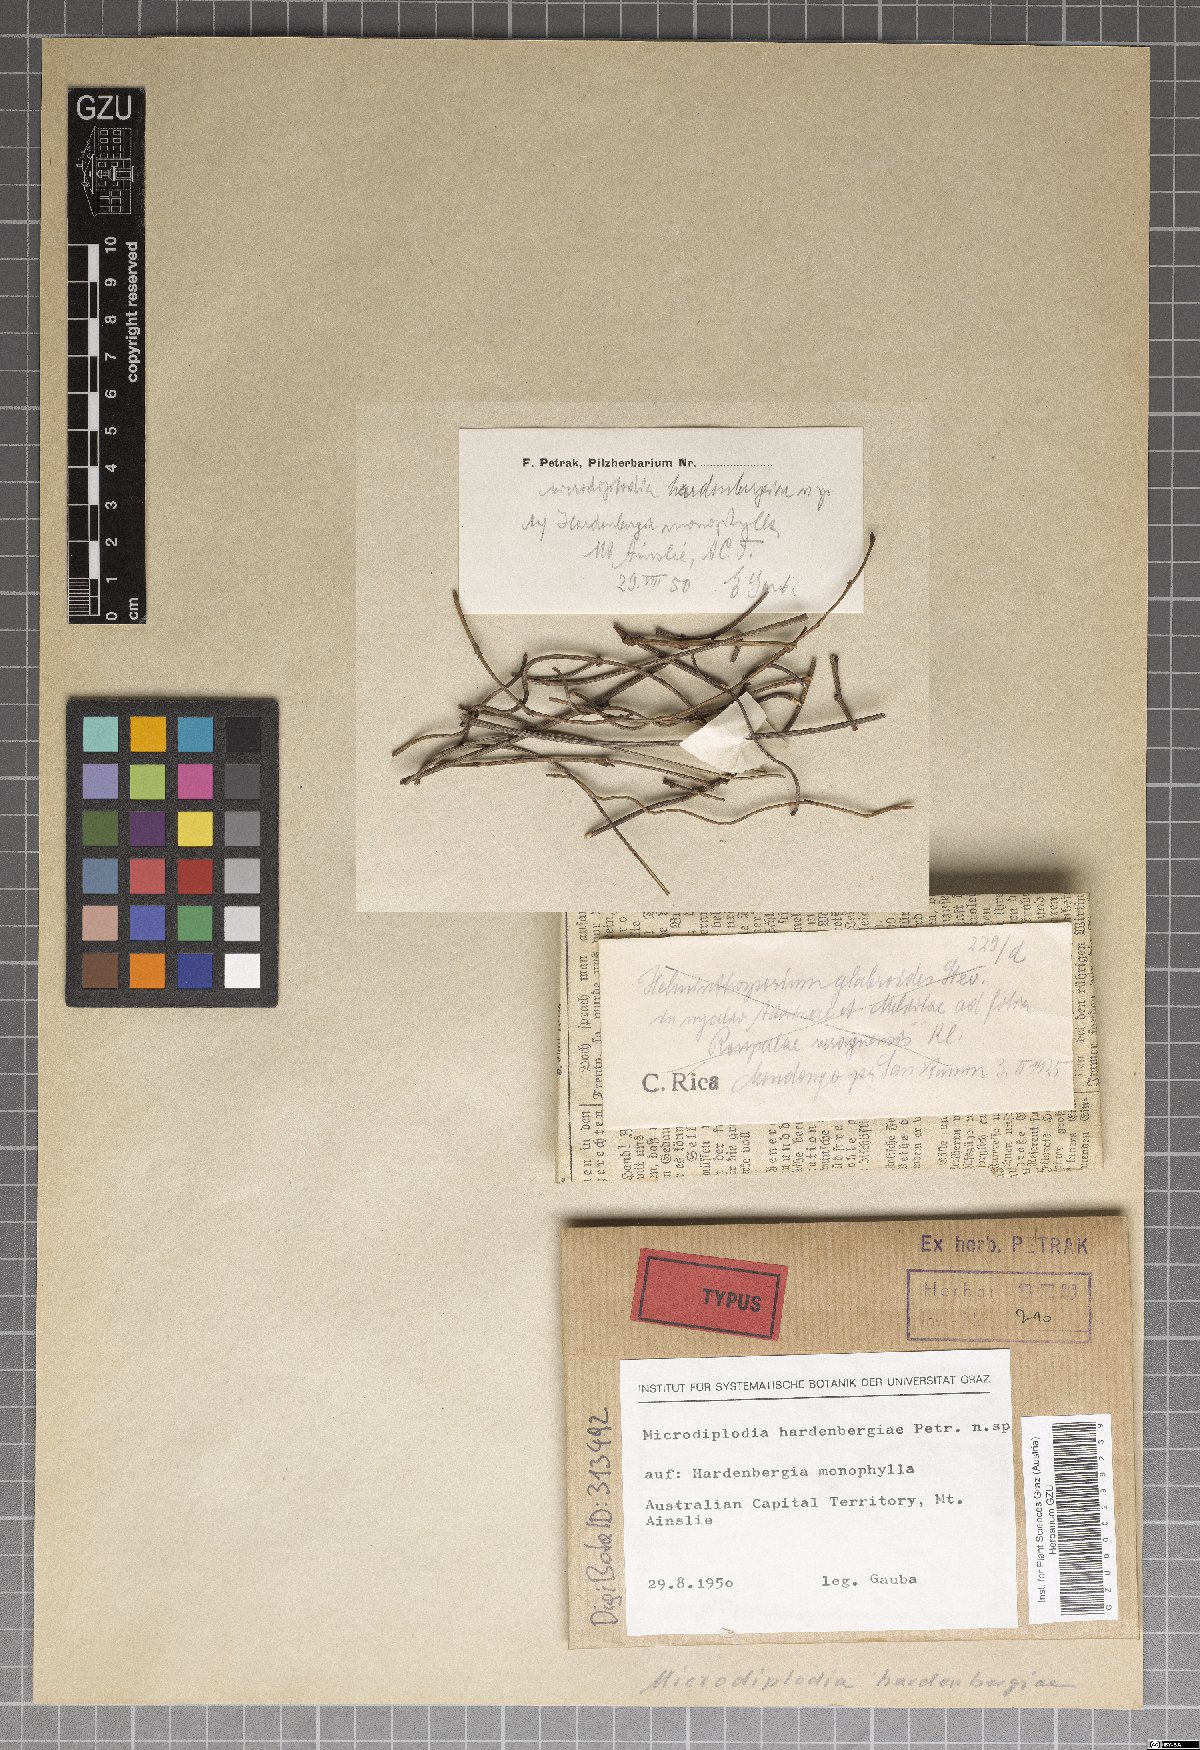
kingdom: Fungi
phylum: Ascomycota
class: Dothideomycetes
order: Botryosphaeriales
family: Botryosphaeriaceae
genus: Microdiplodia
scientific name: Microdiplodia hardenbergiae
